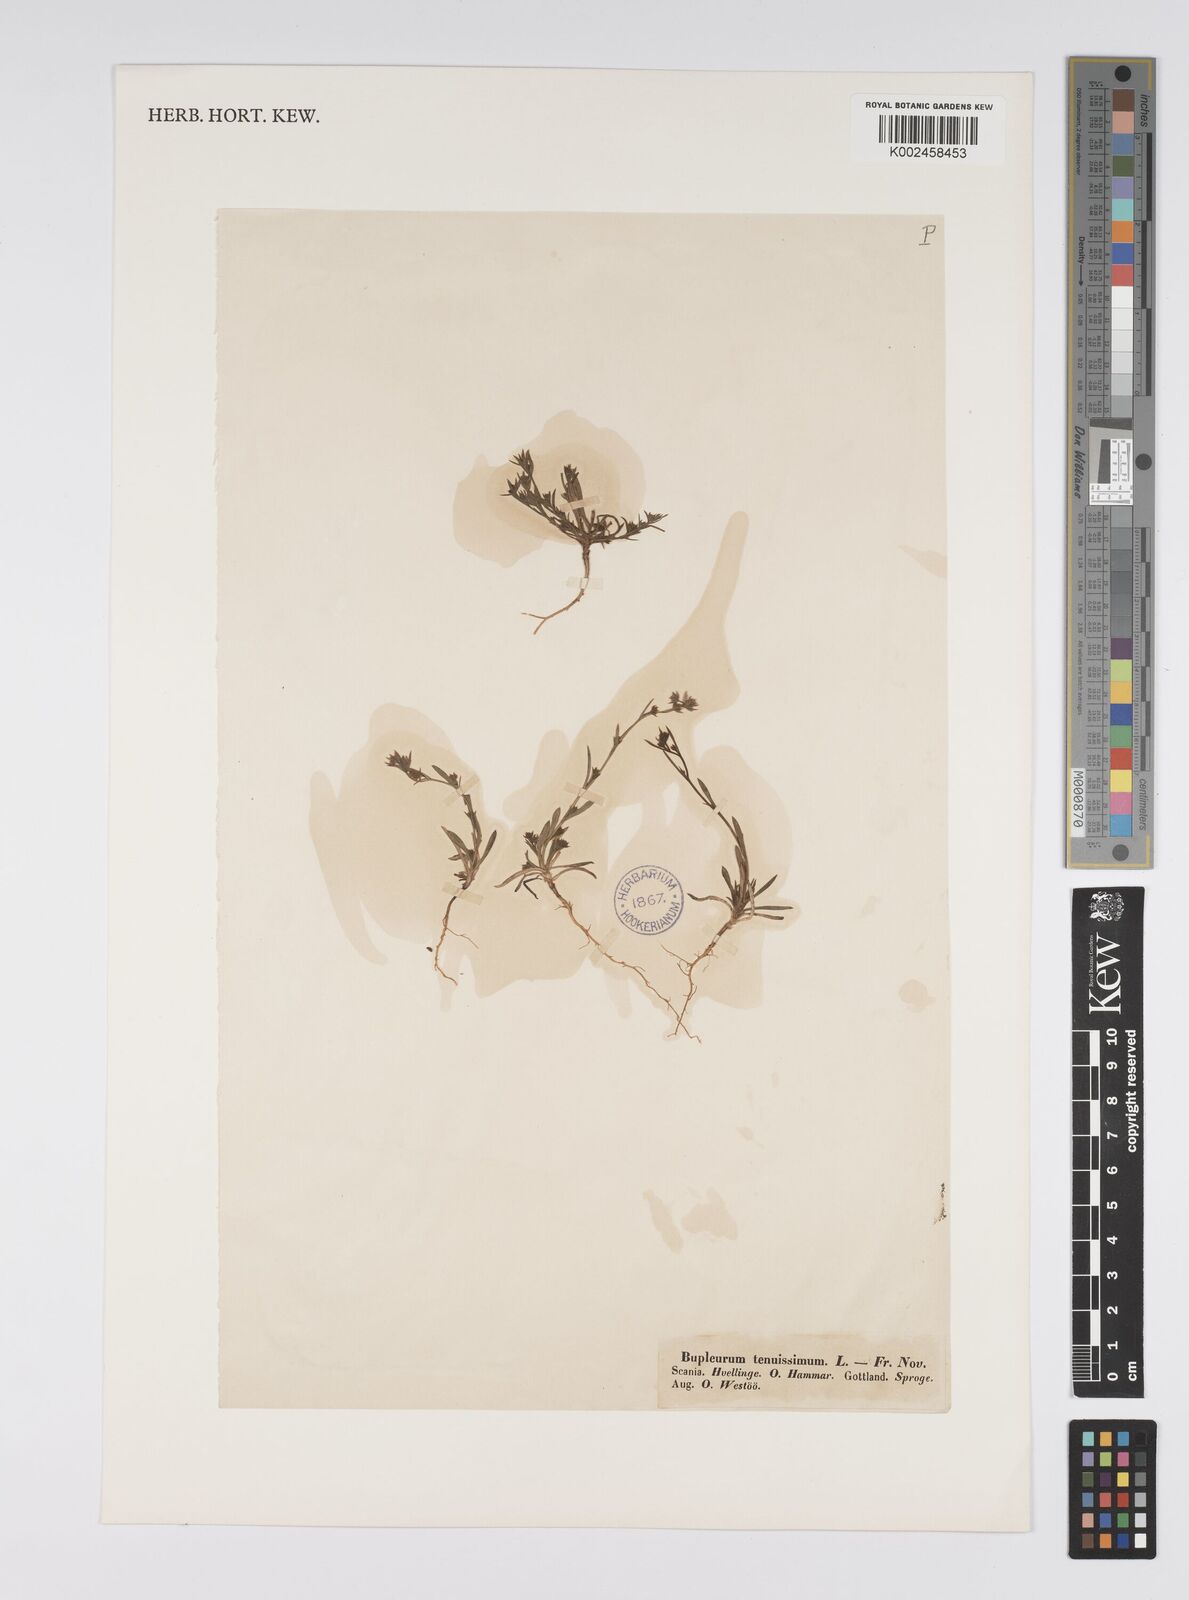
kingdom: Plantae
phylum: Tracheophyta
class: Magnoliopsida
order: Apiales
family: Apiaceae
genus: Bupleurum
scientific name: Bupleurum tenuissimum
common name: Slender hare's-ear
